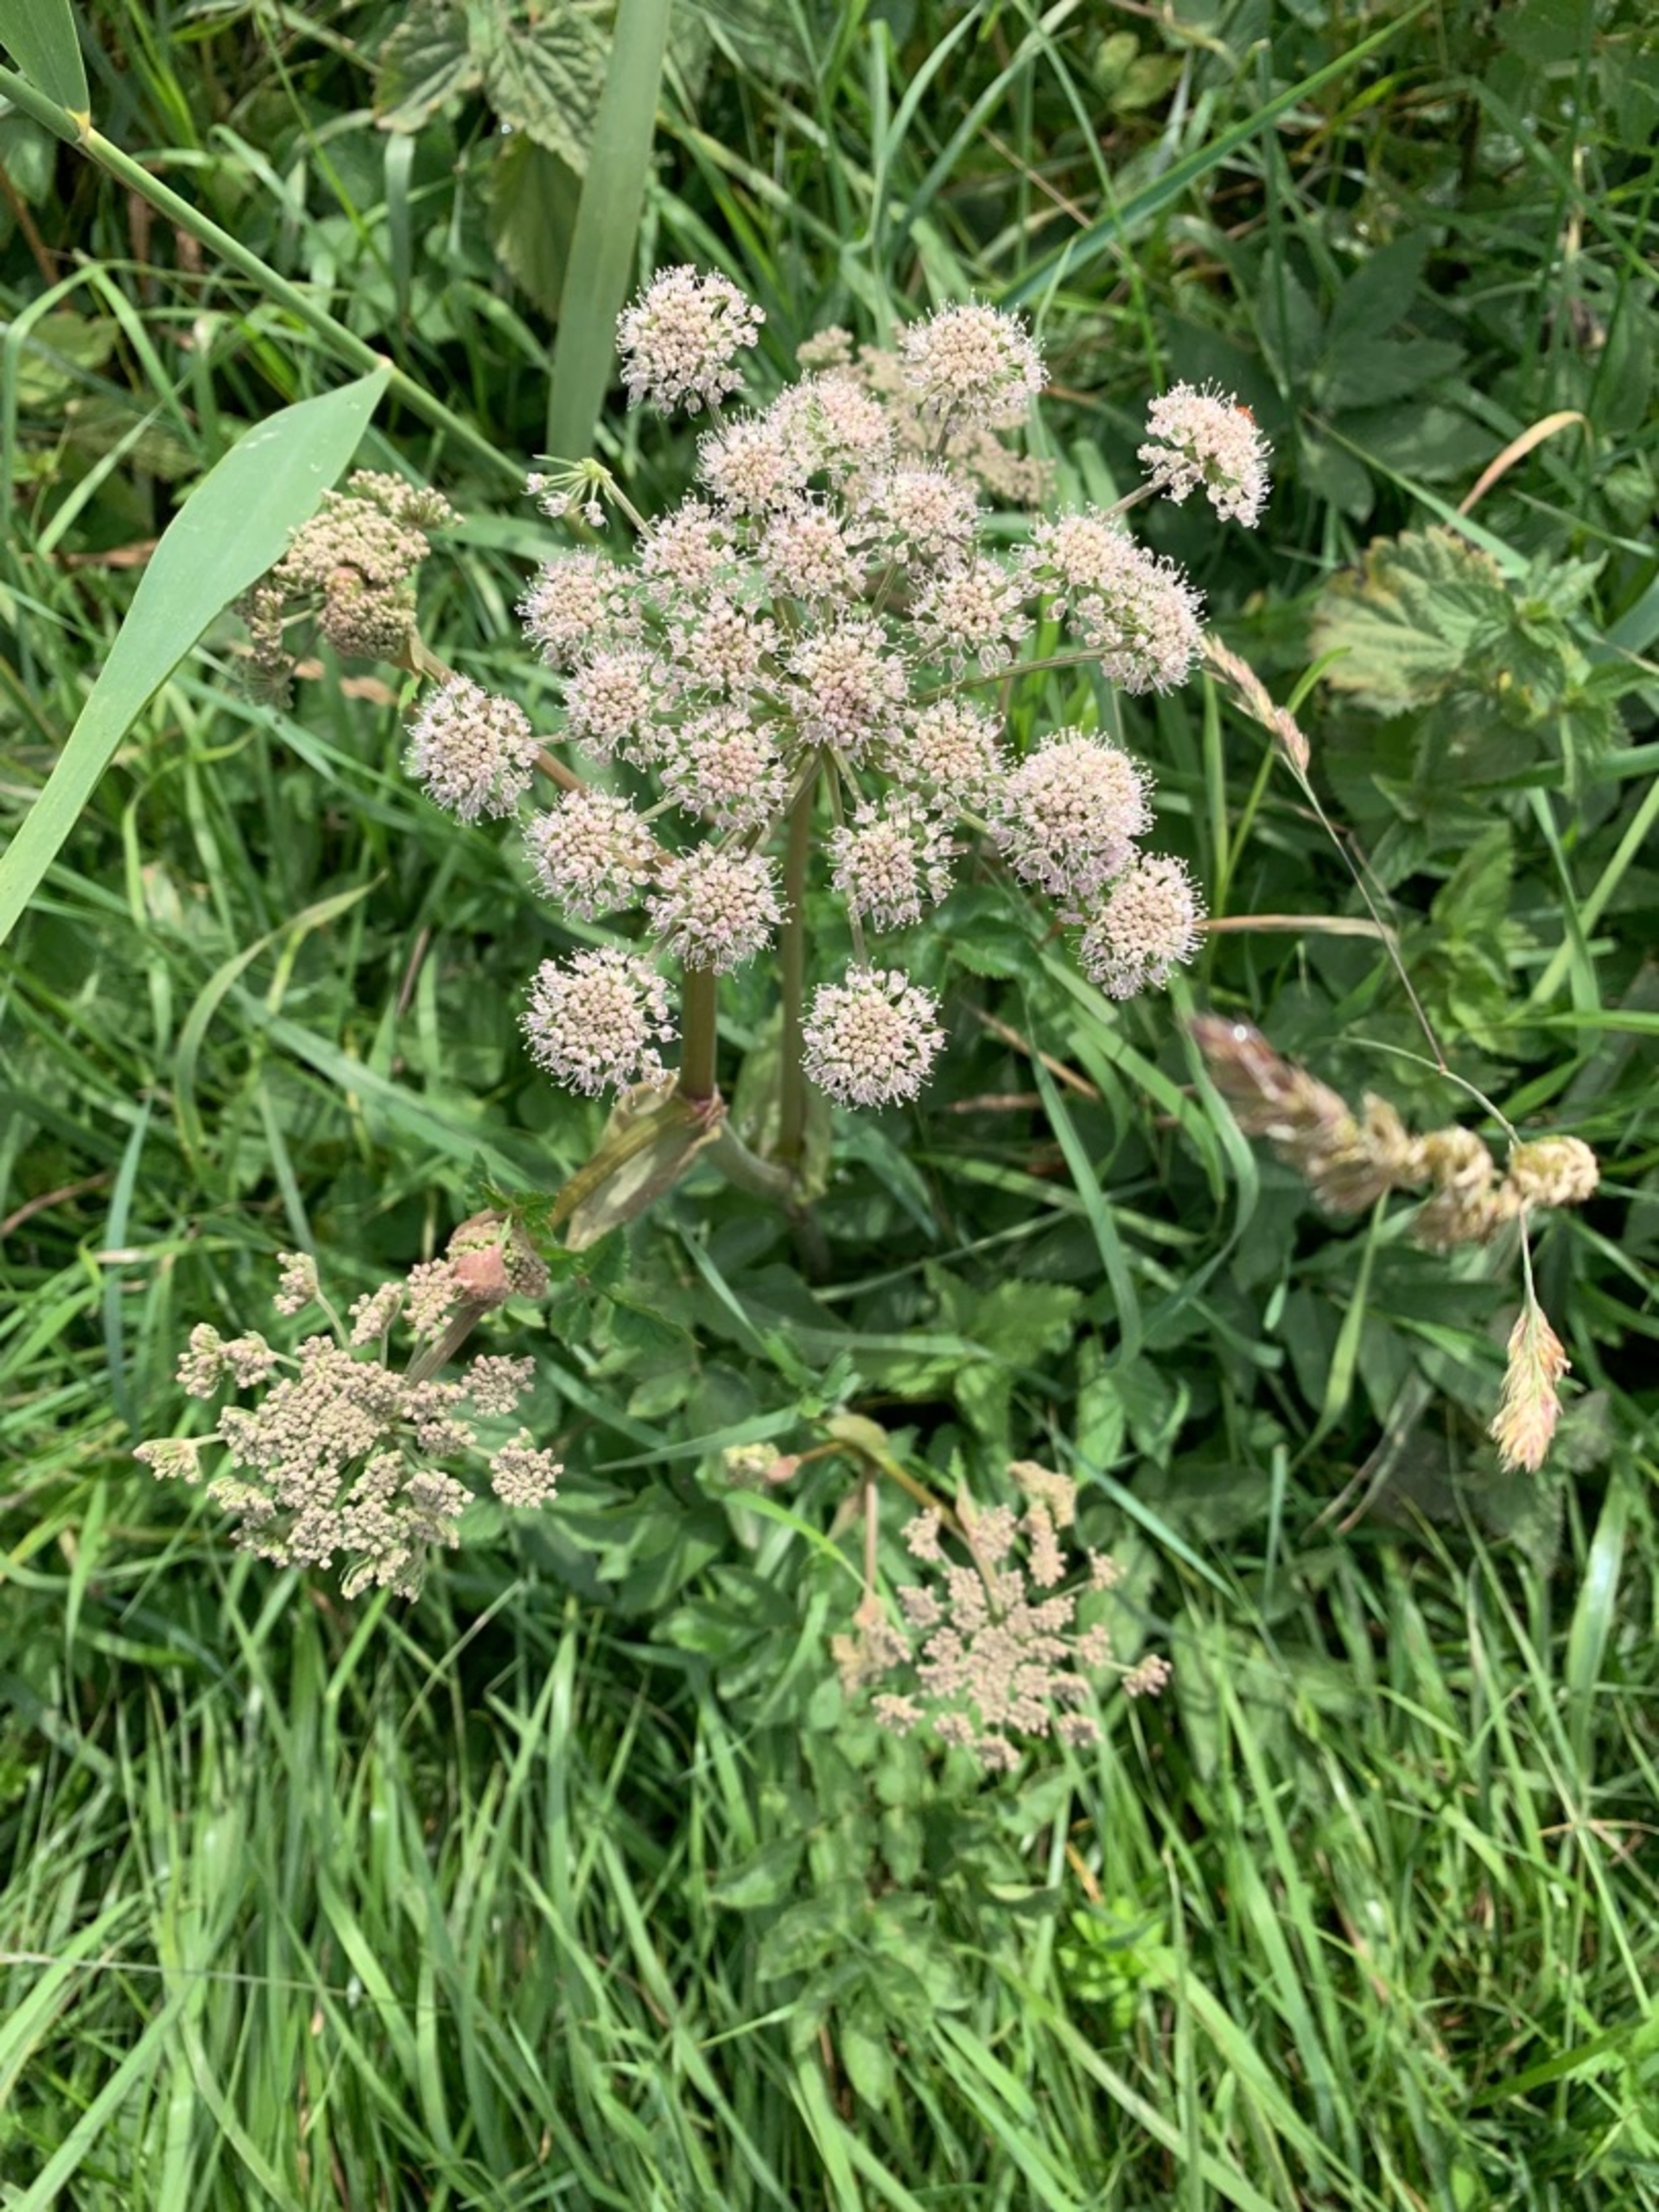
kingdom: Plantae
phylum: Tracheophyta
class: Magnoliopsida
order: Apiales
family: Apiaceae
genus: Angelica
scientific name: Angelica sylvestris
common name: Angelik
